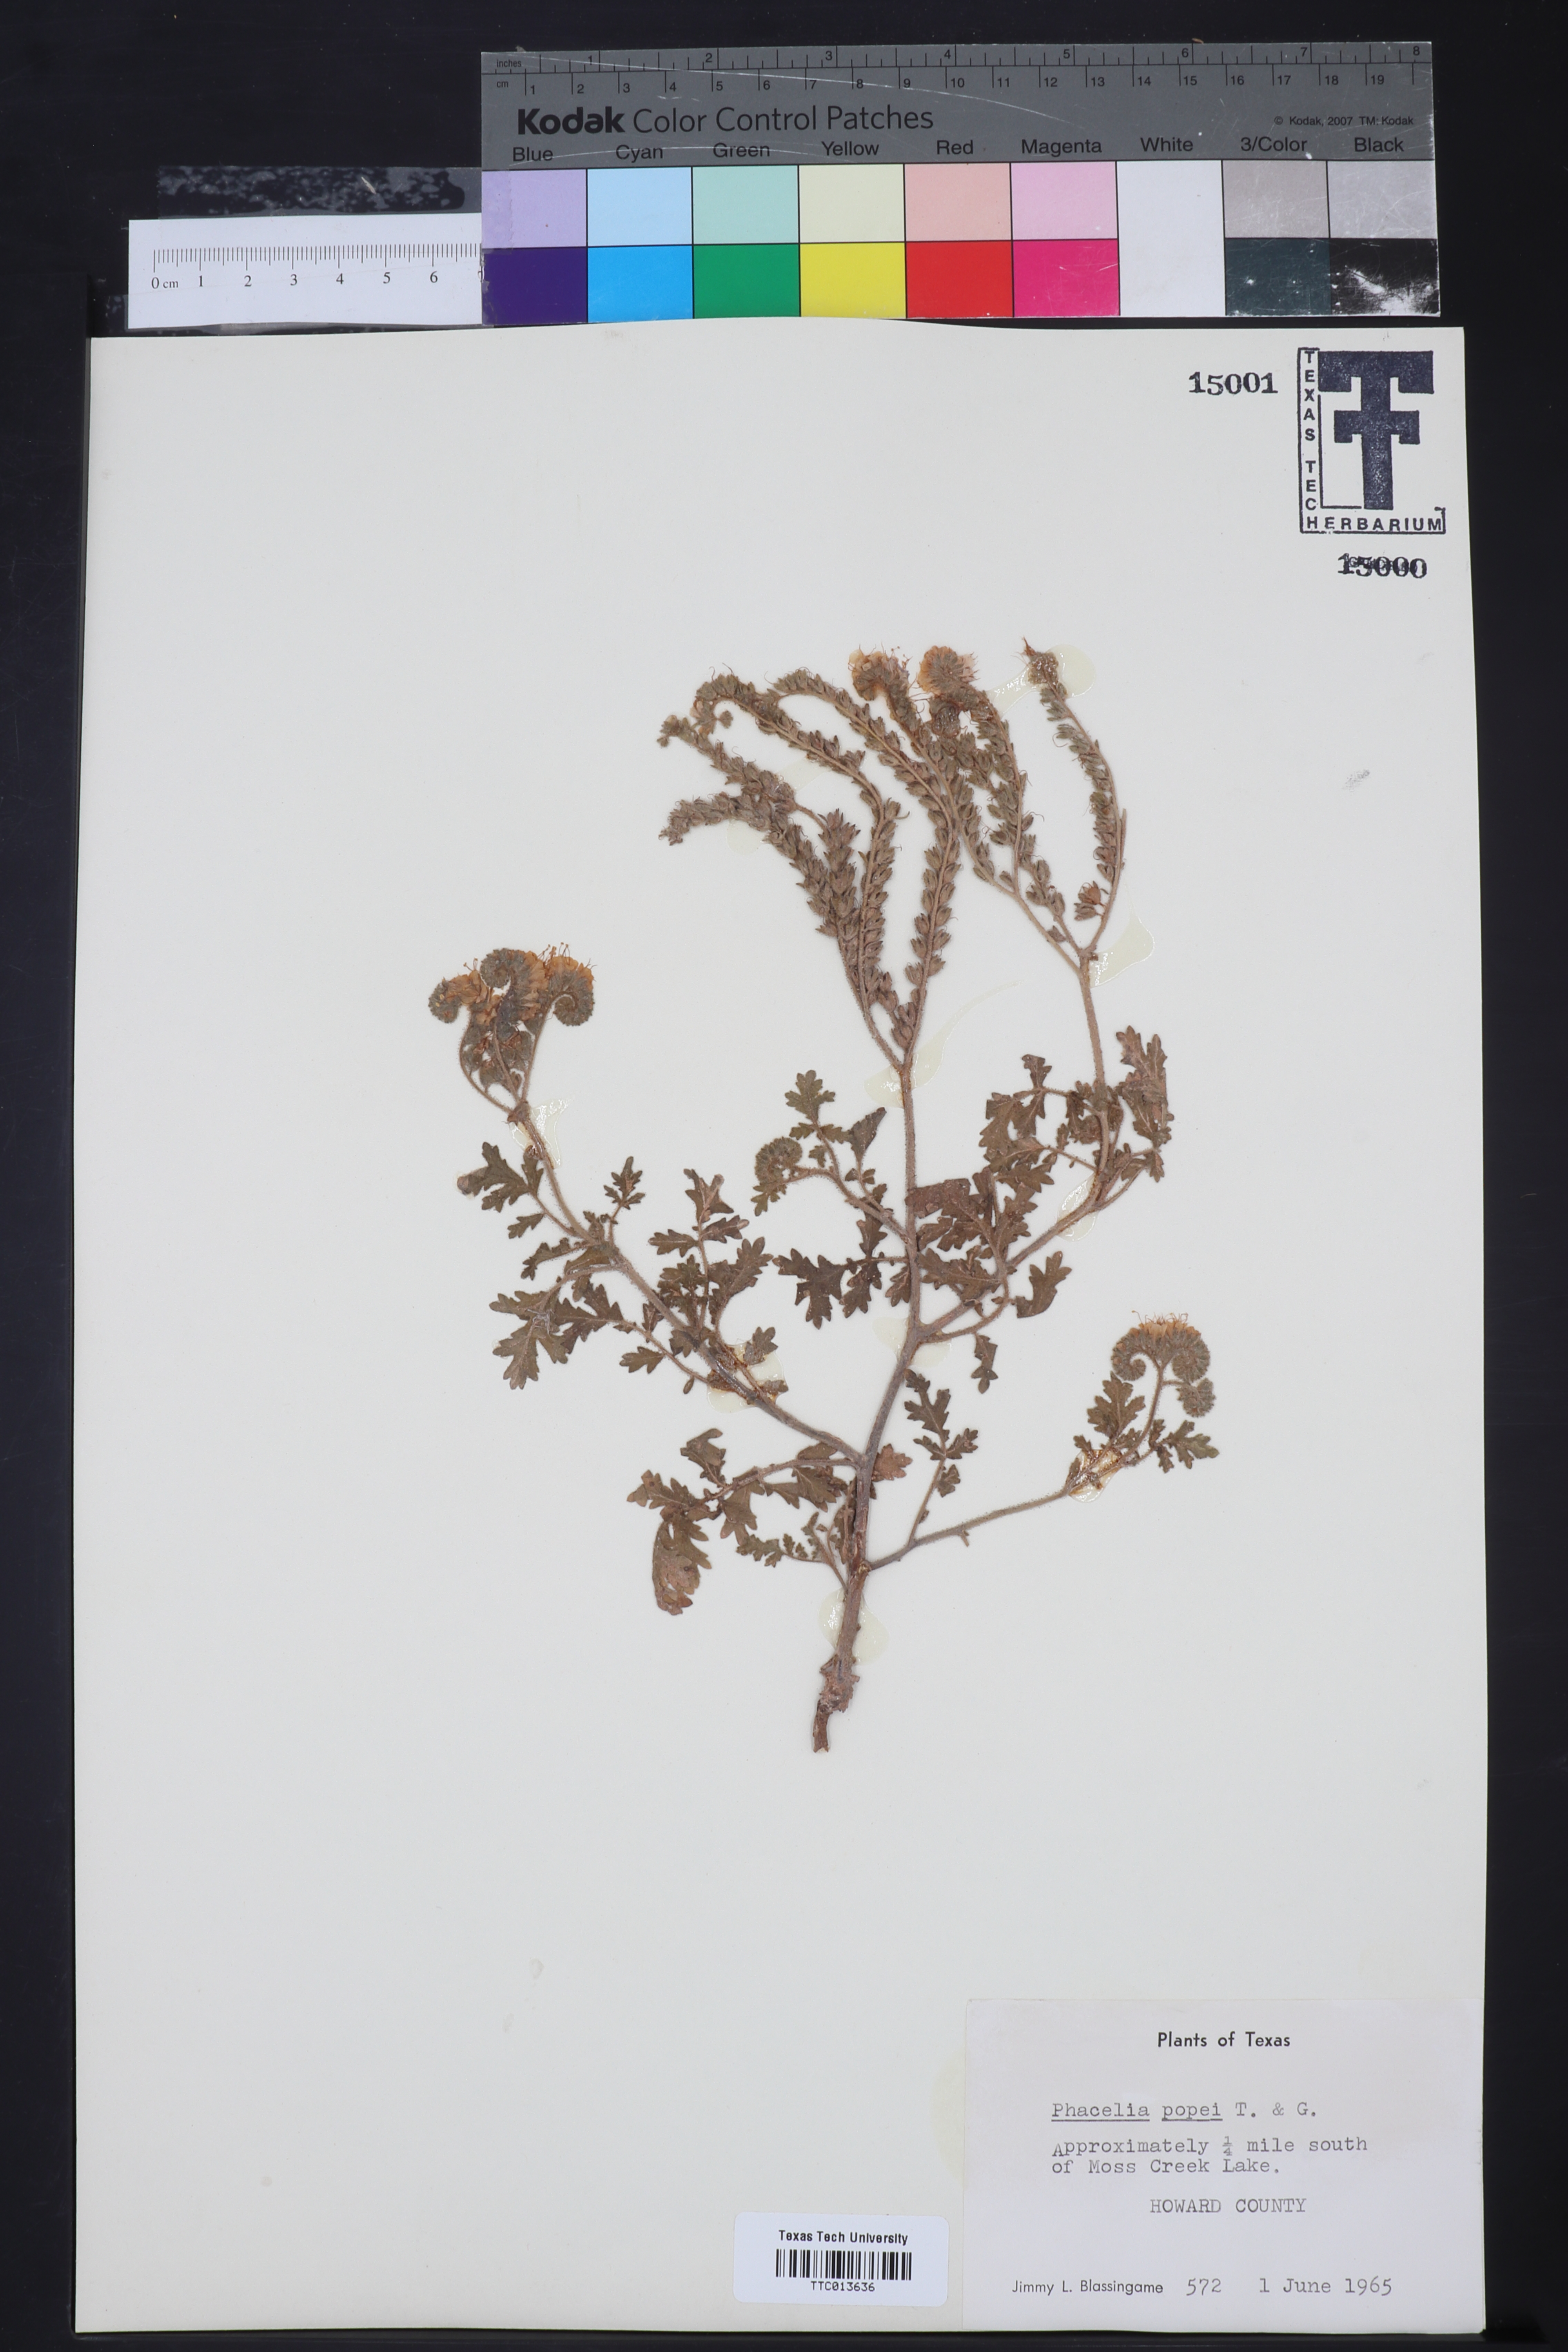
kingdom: Plantae
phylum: Tracheophyta
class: Magnoliopsida
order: Boraginales
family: Hydrophyllaceae
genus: Phacelia
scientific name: Phacelia popei
